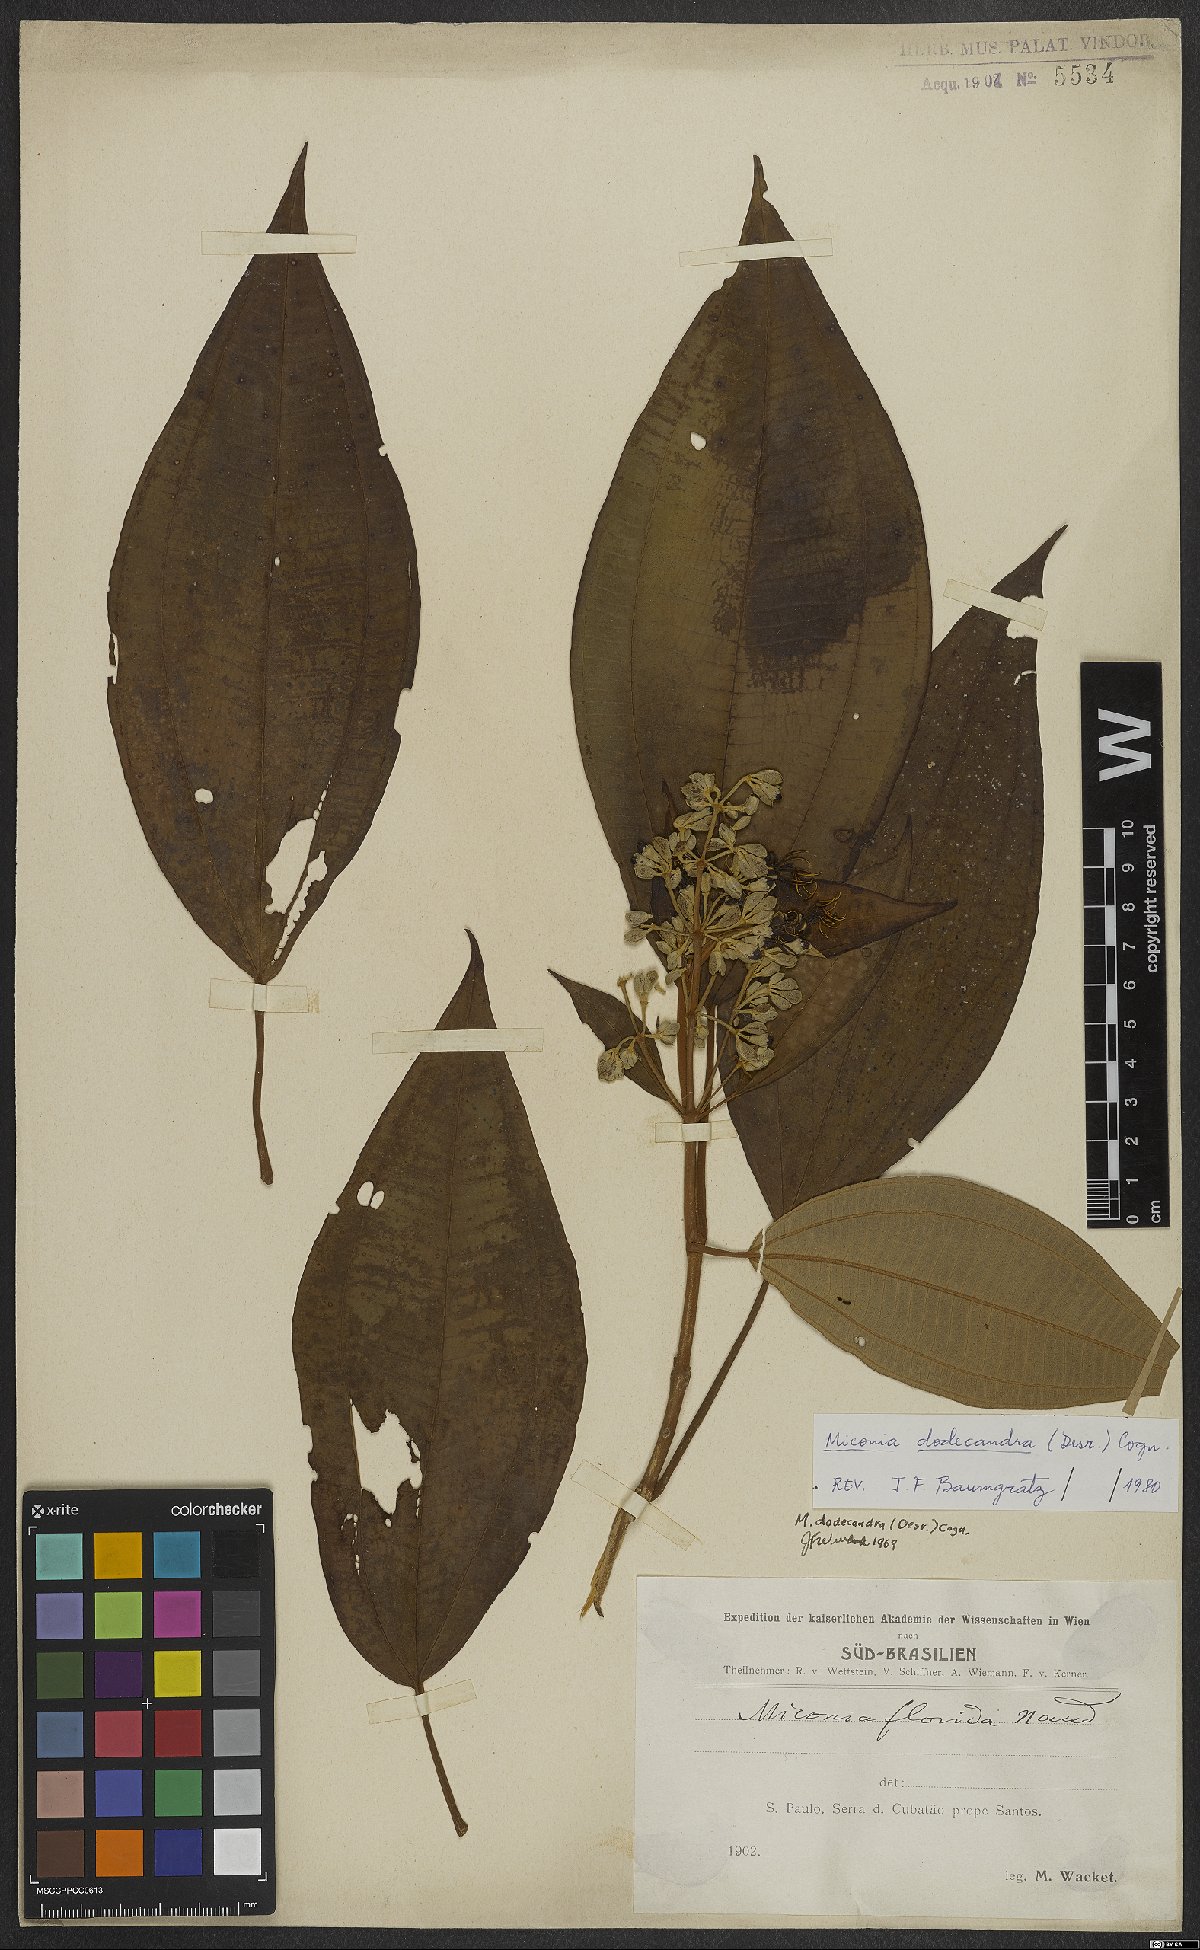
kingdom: Plantae
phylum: Tracheophyta
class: Magnoliopsida
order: Myrtales
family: Melastomataceae
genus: Miconia
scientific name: Miconia dodecandra
